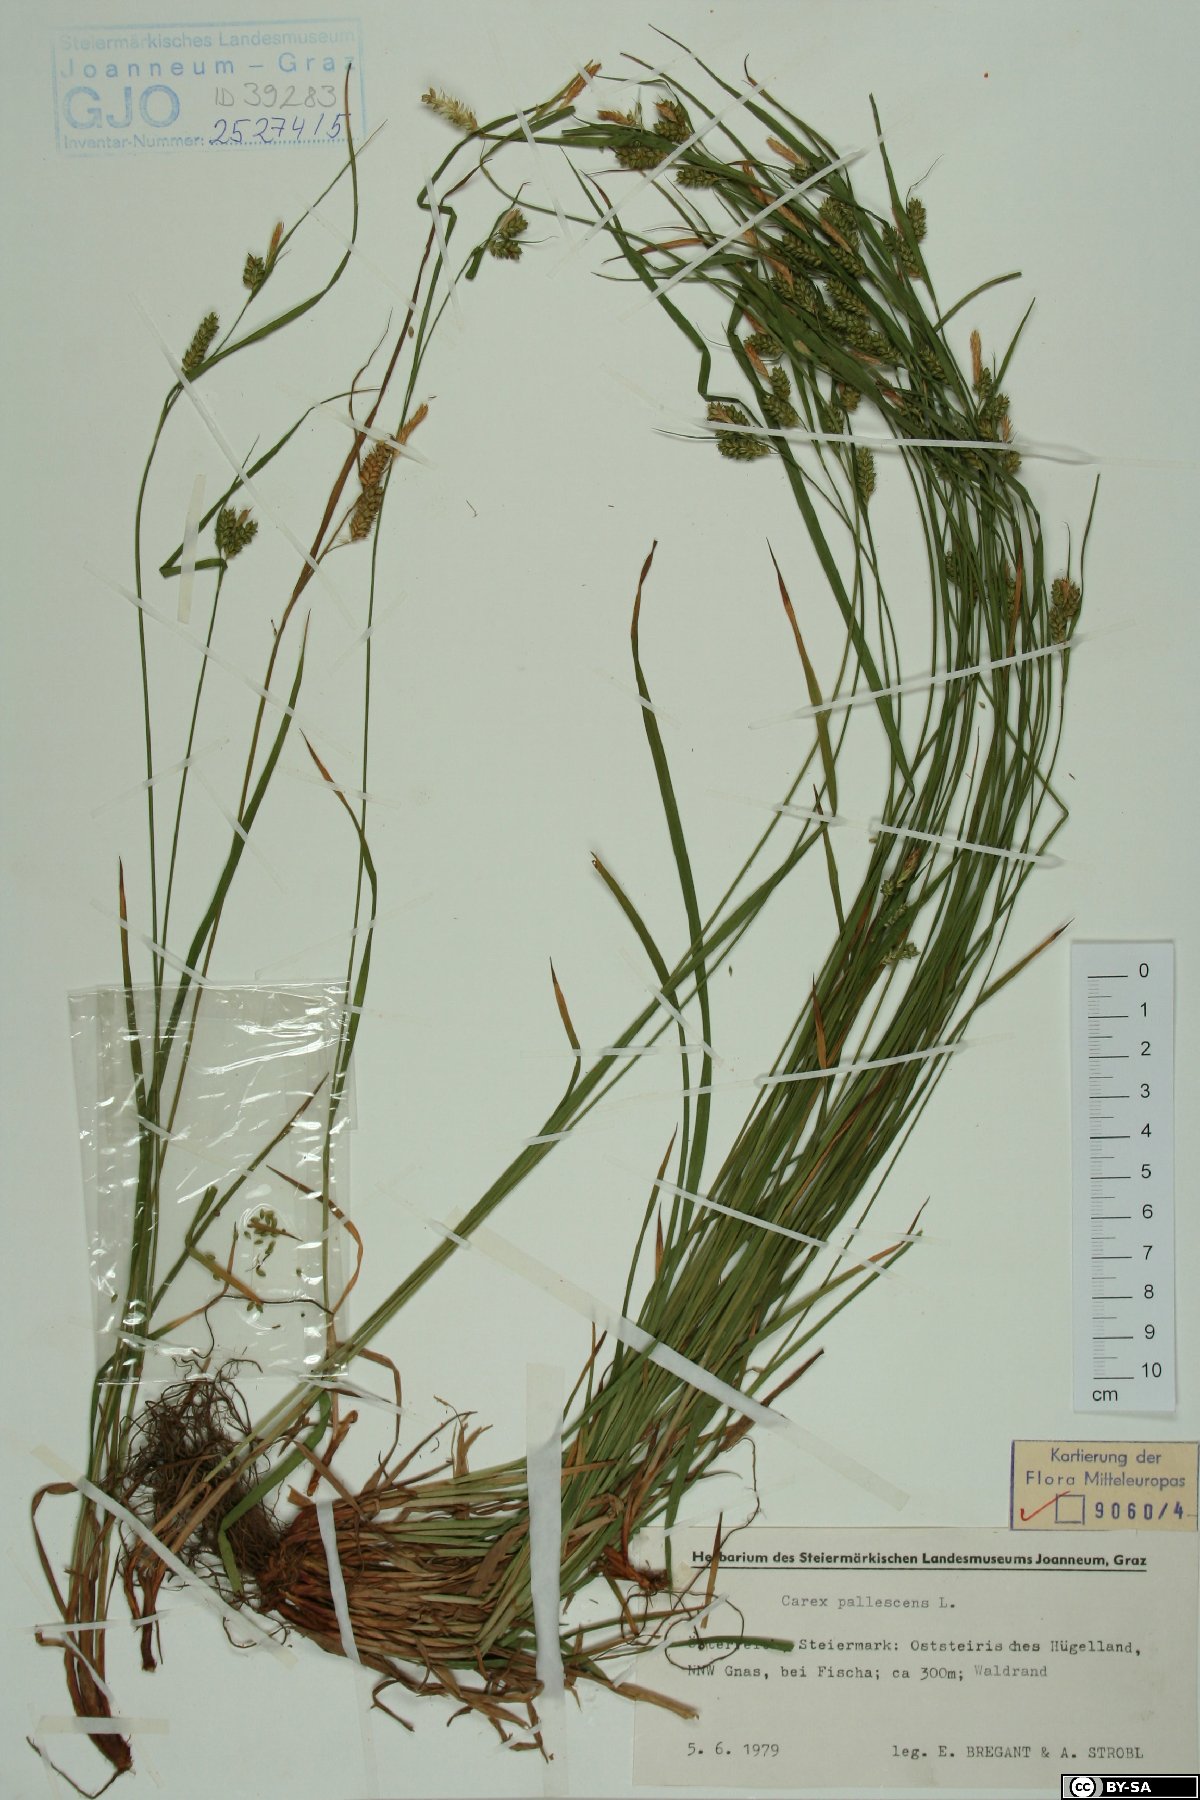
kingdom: Plantae
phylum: Tracheophyta
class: Liliopsida
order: Poales
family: Cyperaceae
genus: Carex
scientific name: Carex pallescens
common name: Pale sedge
